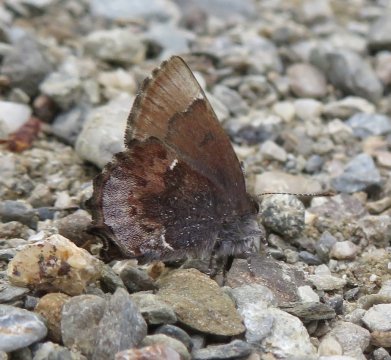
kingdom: Animalia
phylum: Arthropoda
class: Insecta
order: Lepidoptera
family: Lycaenidae
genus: Incisalia
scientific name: Incisalia henrici
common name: Henry's Elfin
